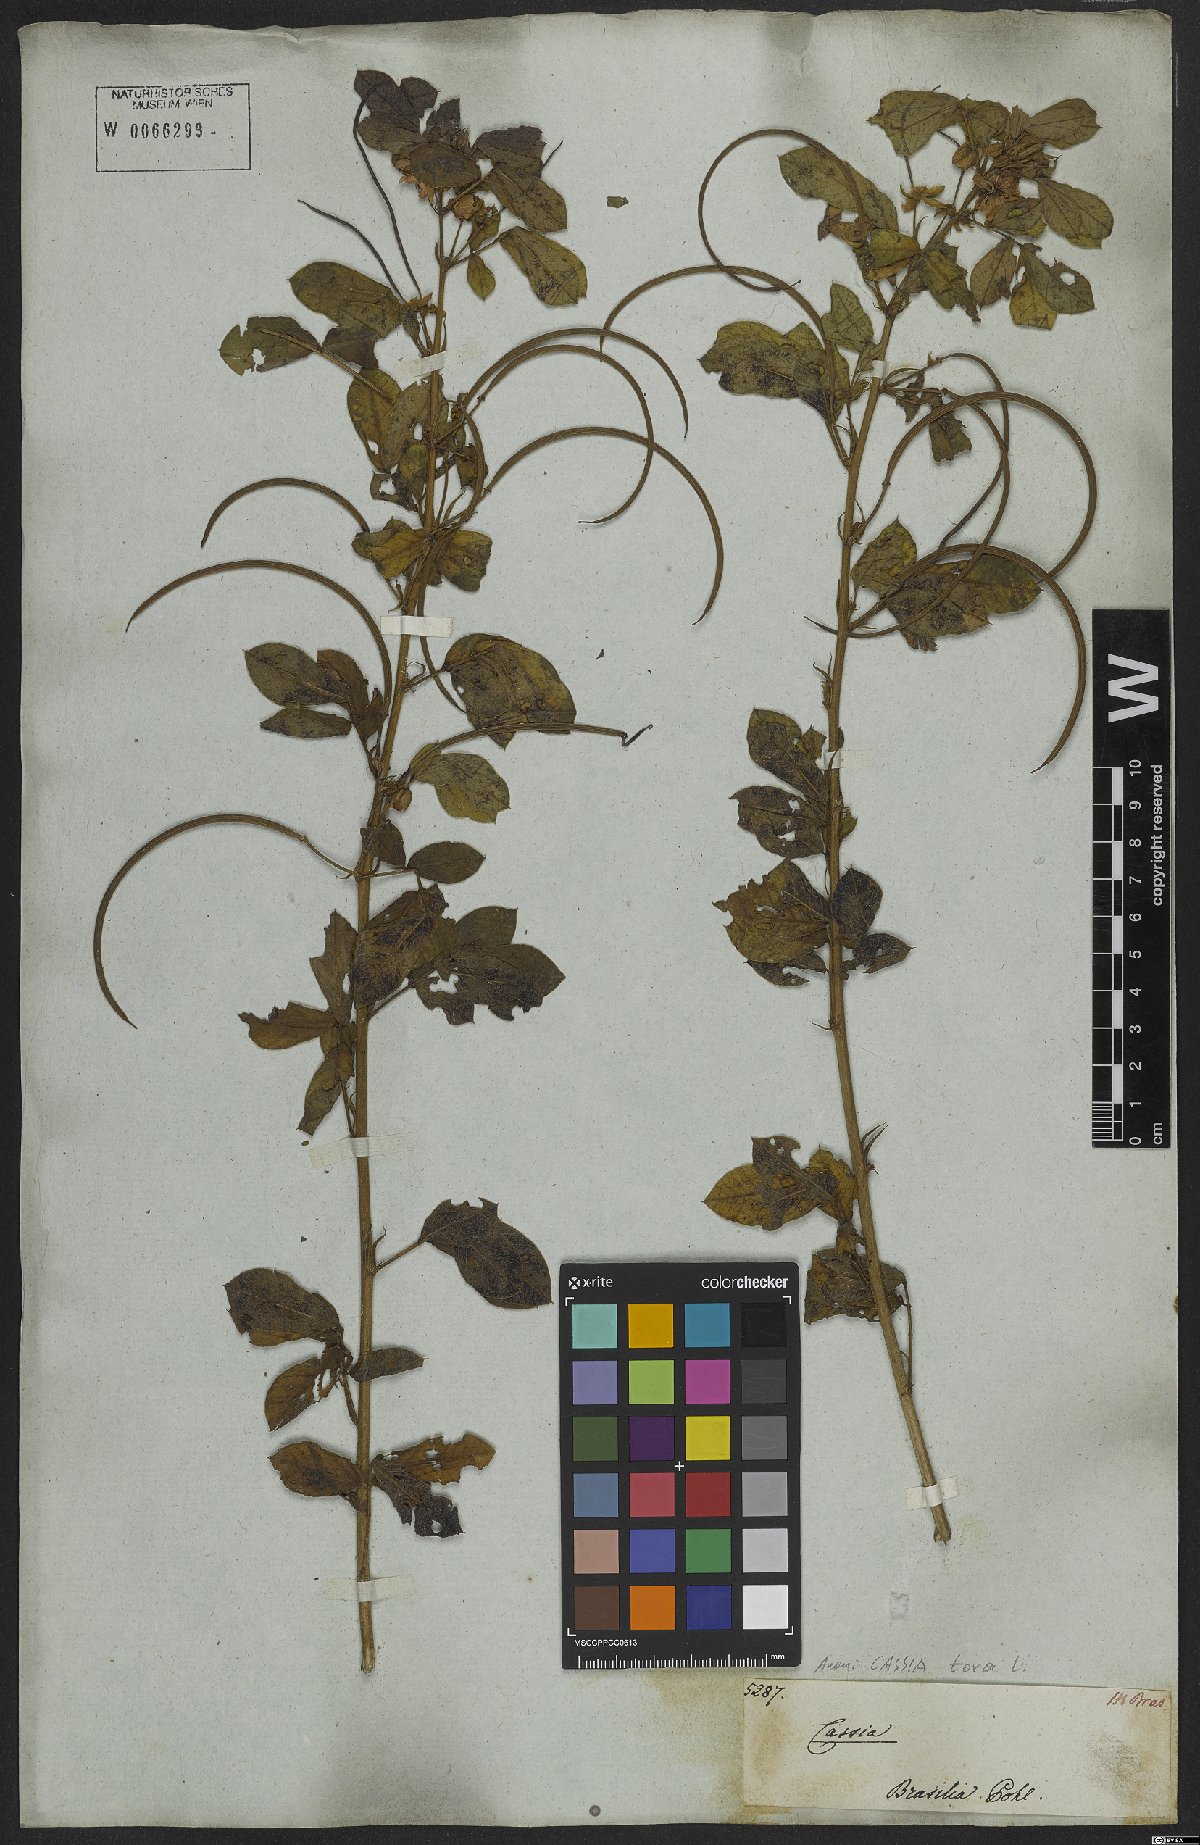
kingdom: Plantae
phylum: Tracheophyta
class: Magnoliopsida
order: Fabales
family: Fabaceae
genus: Senna
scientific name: Senna tora
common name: Sickle senna
